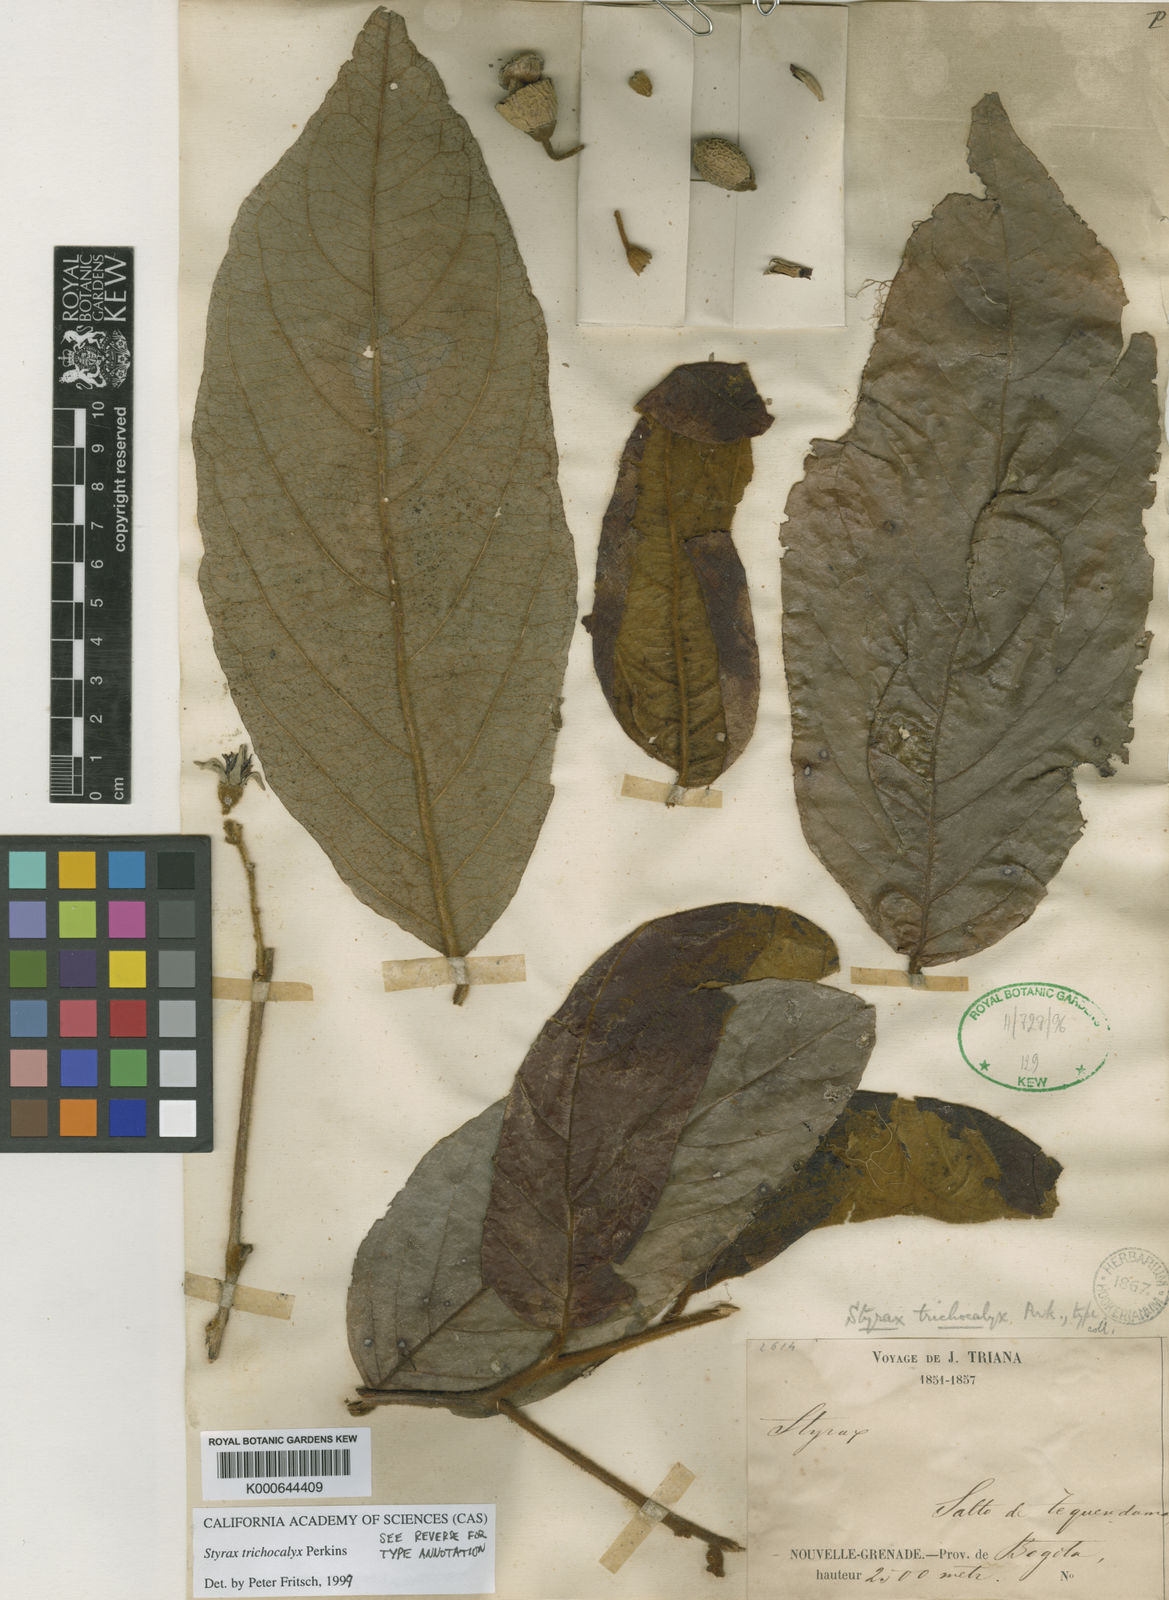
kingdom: Plantae
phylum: Tracheophyta
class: Magnoliopsida
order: Ericales
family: Styracaceae
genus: Styrax
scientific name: Styrax trichocalyx
